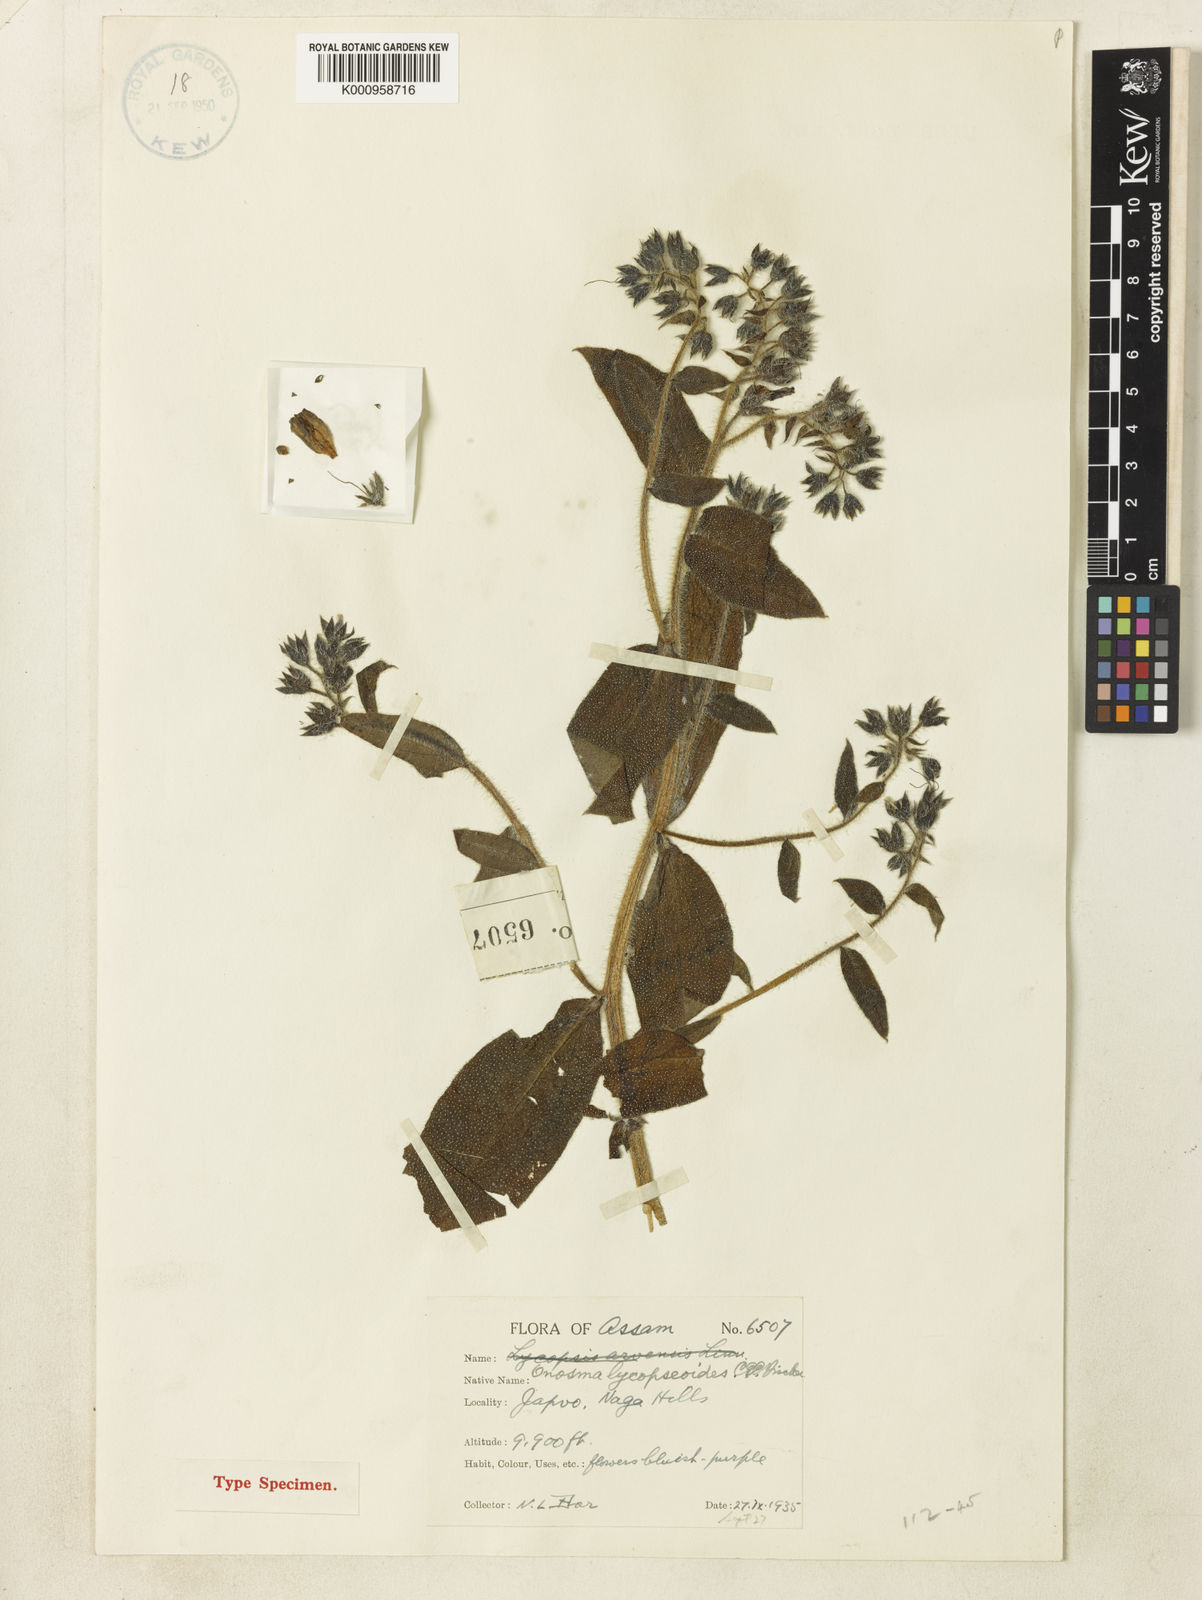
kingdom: Plantae
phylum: Tracheophyta
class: Magnoliopsida
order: Boraginales
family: Boraginaceae
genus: Maharanga
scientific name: Maharanga lycopsioides
